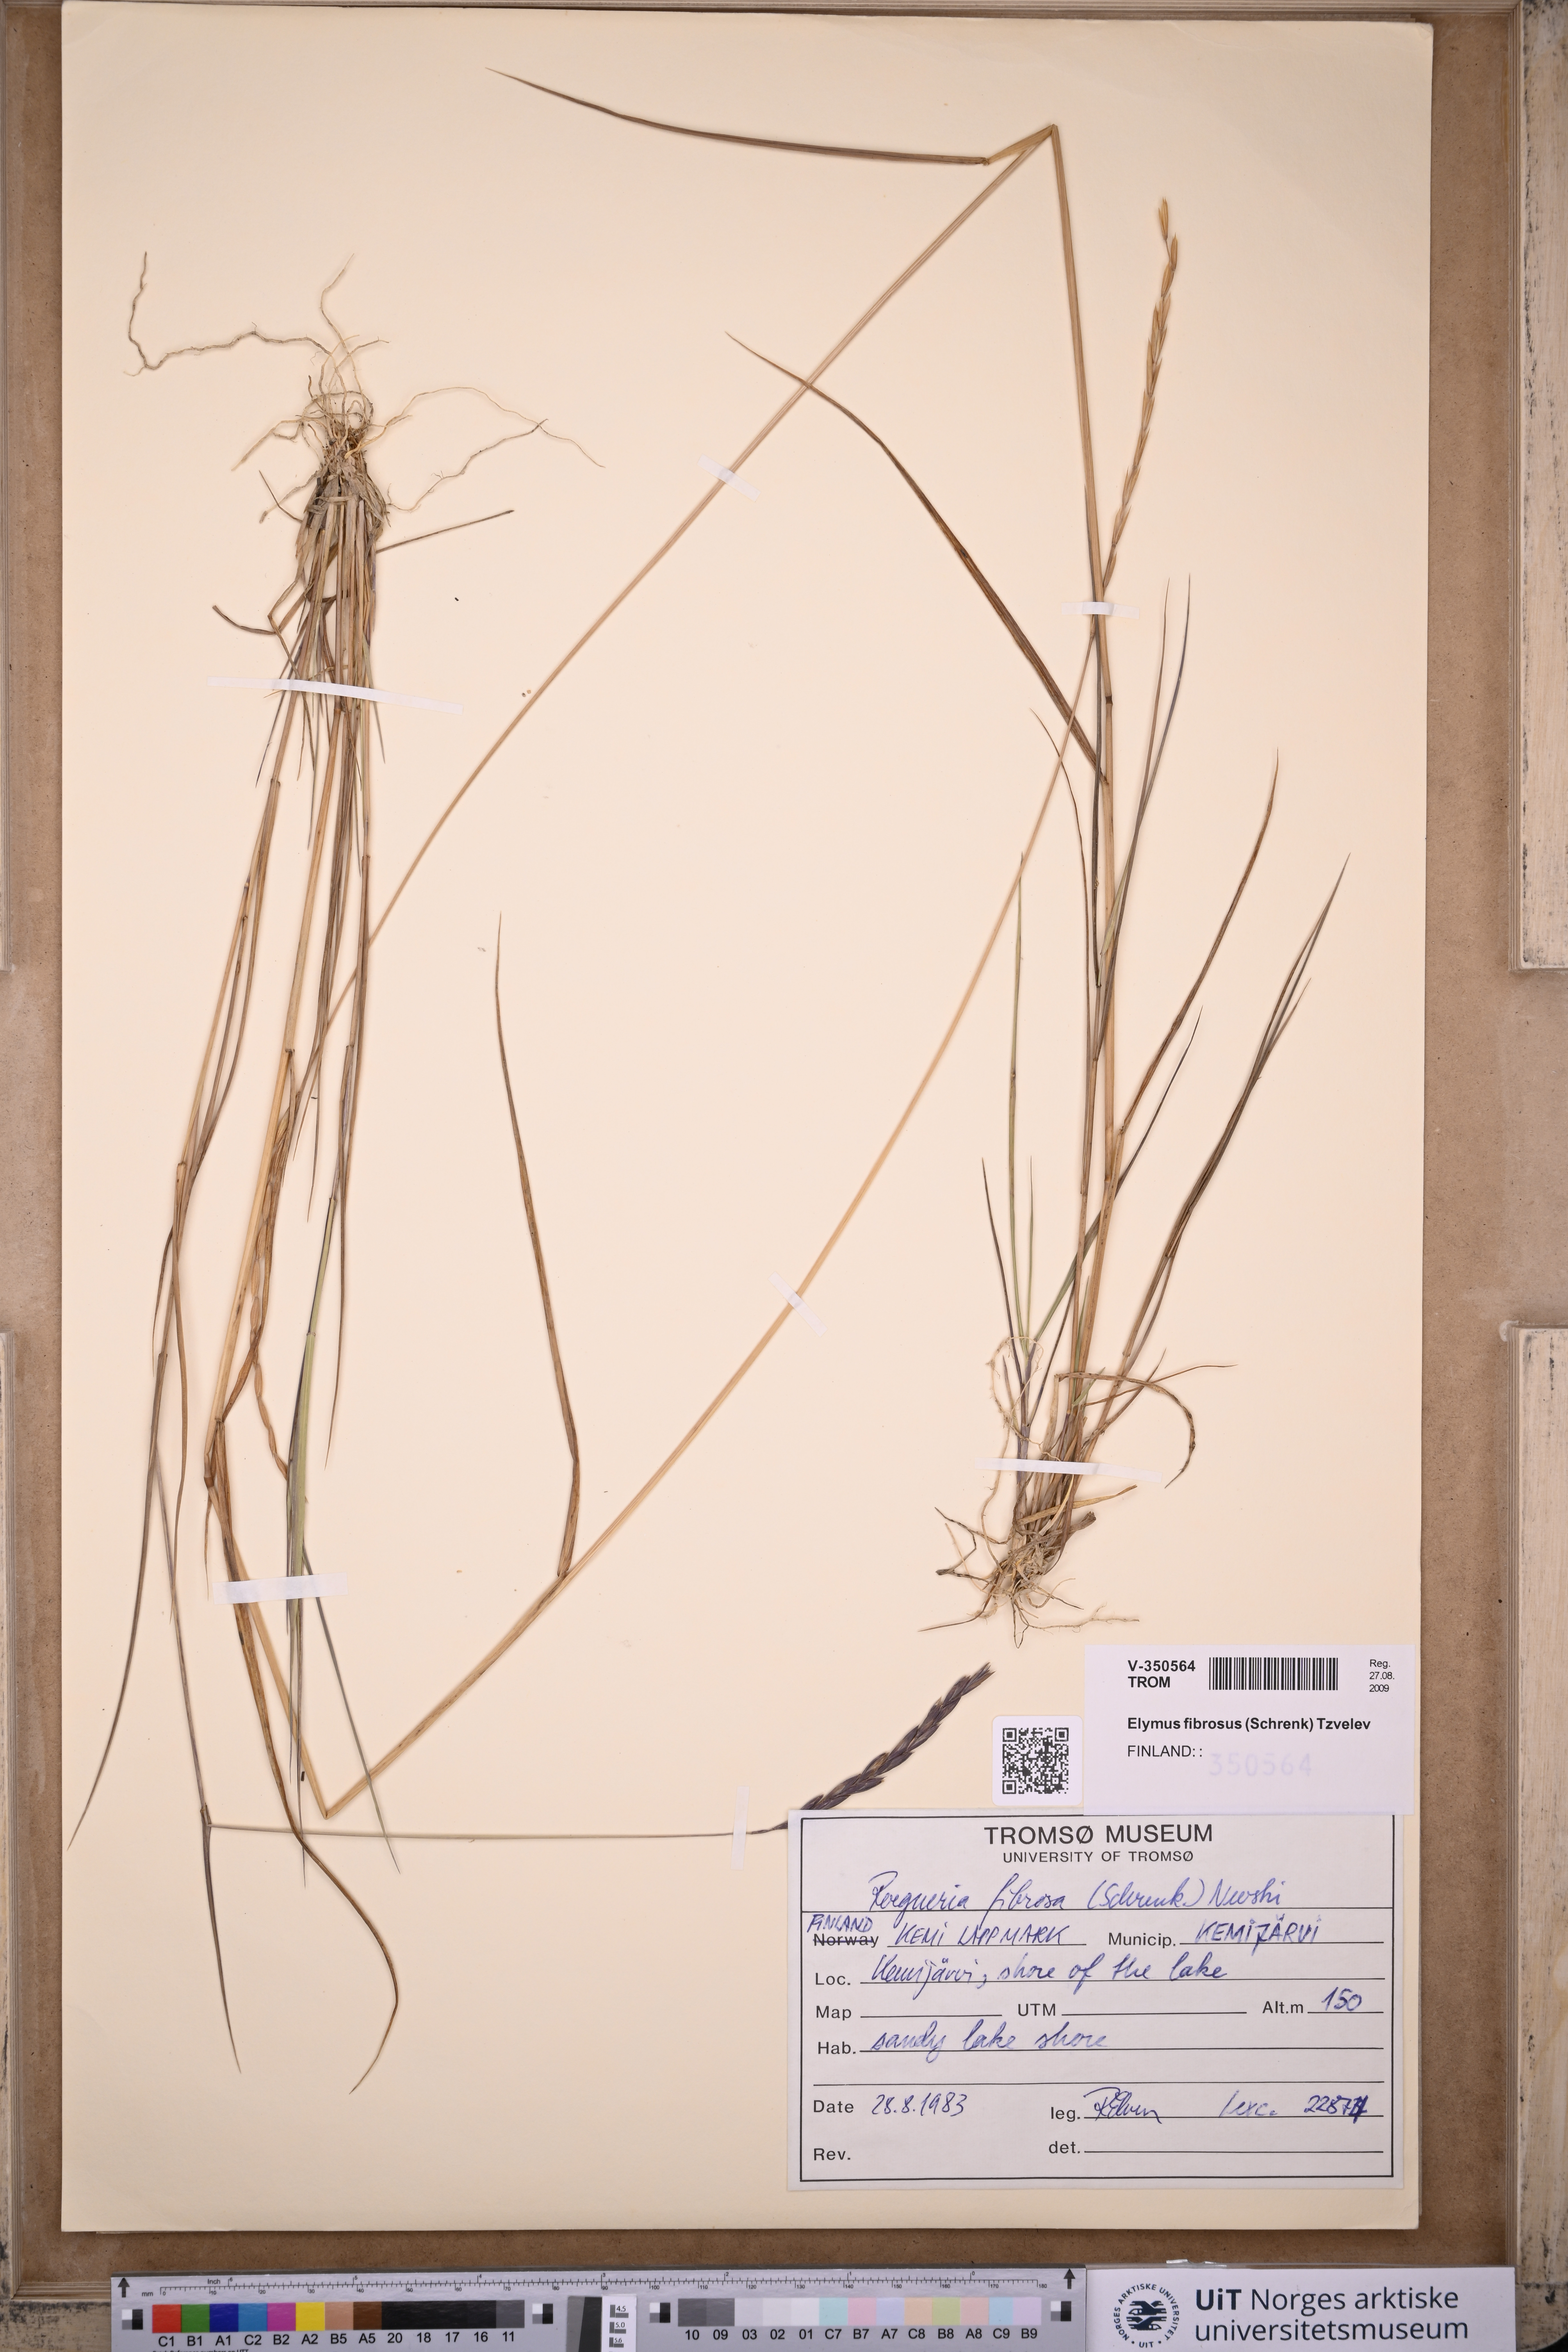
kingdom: Plantae
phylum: Tracheophyta
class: Liliopsida
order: Poales
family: Poaceae
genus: Elymus
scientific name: Elymus fibrosus
